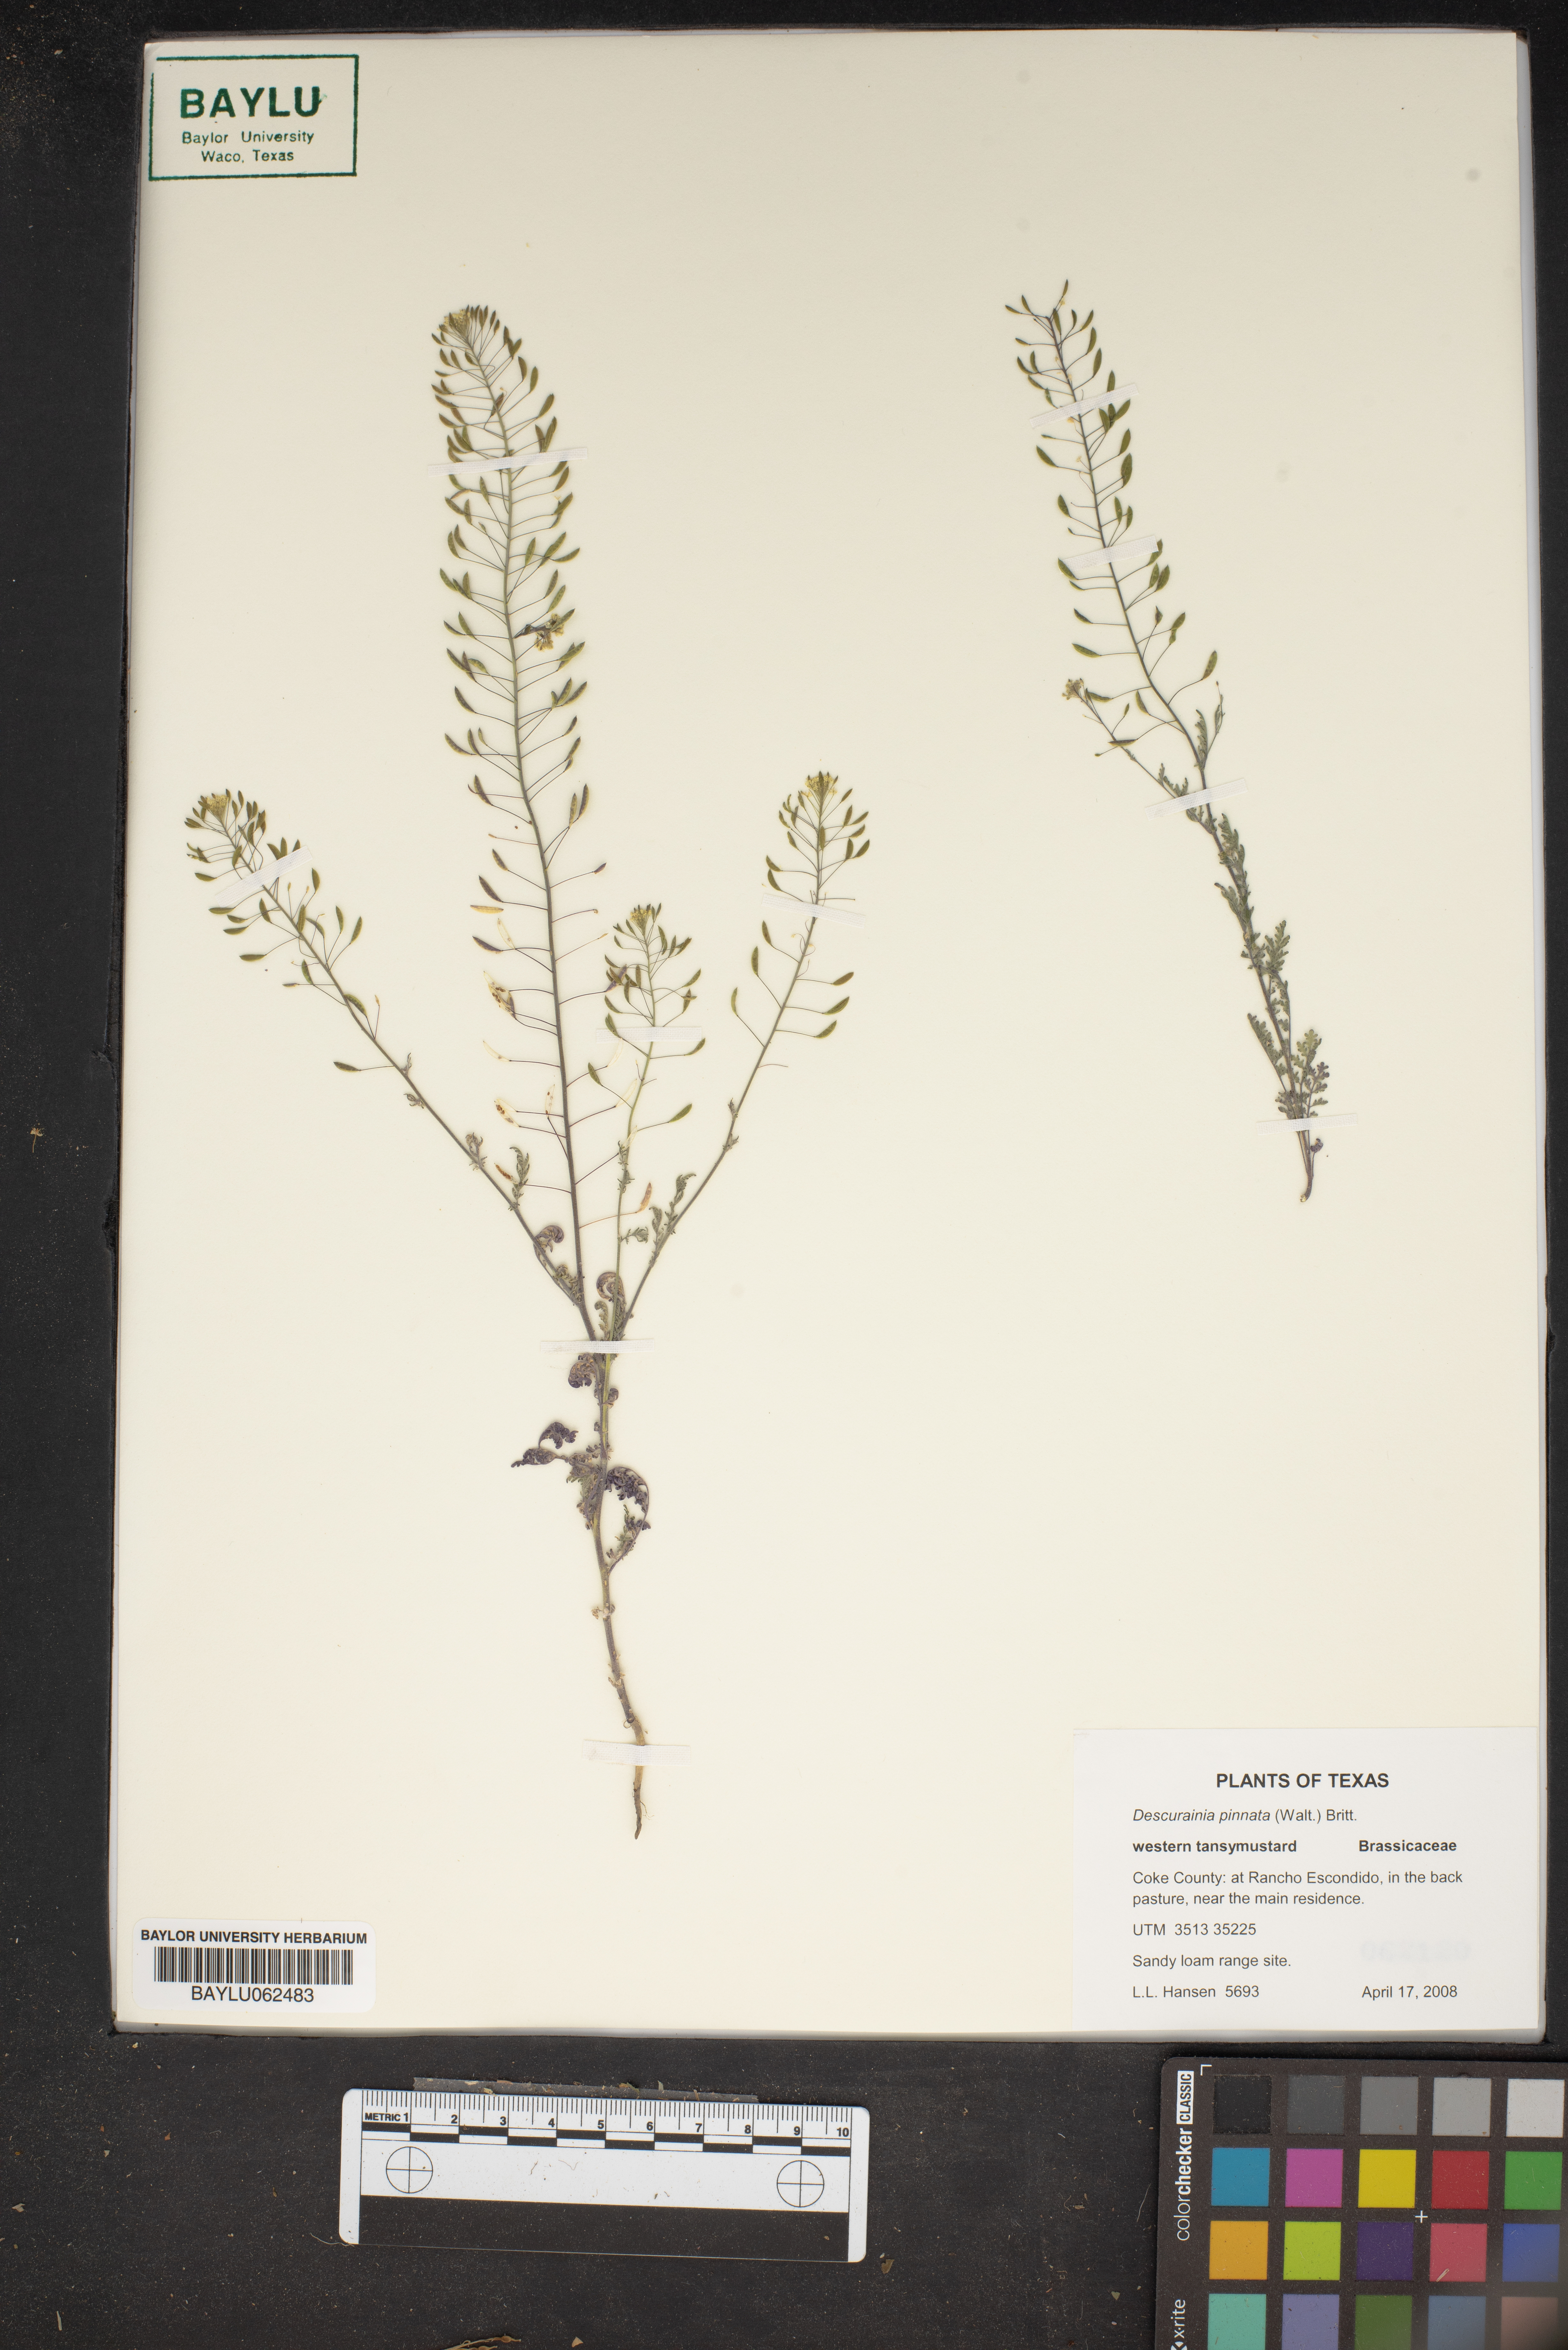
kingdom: Plantae
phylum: Tracheophyta
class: Magnoliopsida
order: Brassicales
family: Brassicaceae
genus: Descurainia
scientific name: Descurainia pinnata
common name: Western tansy mustard
